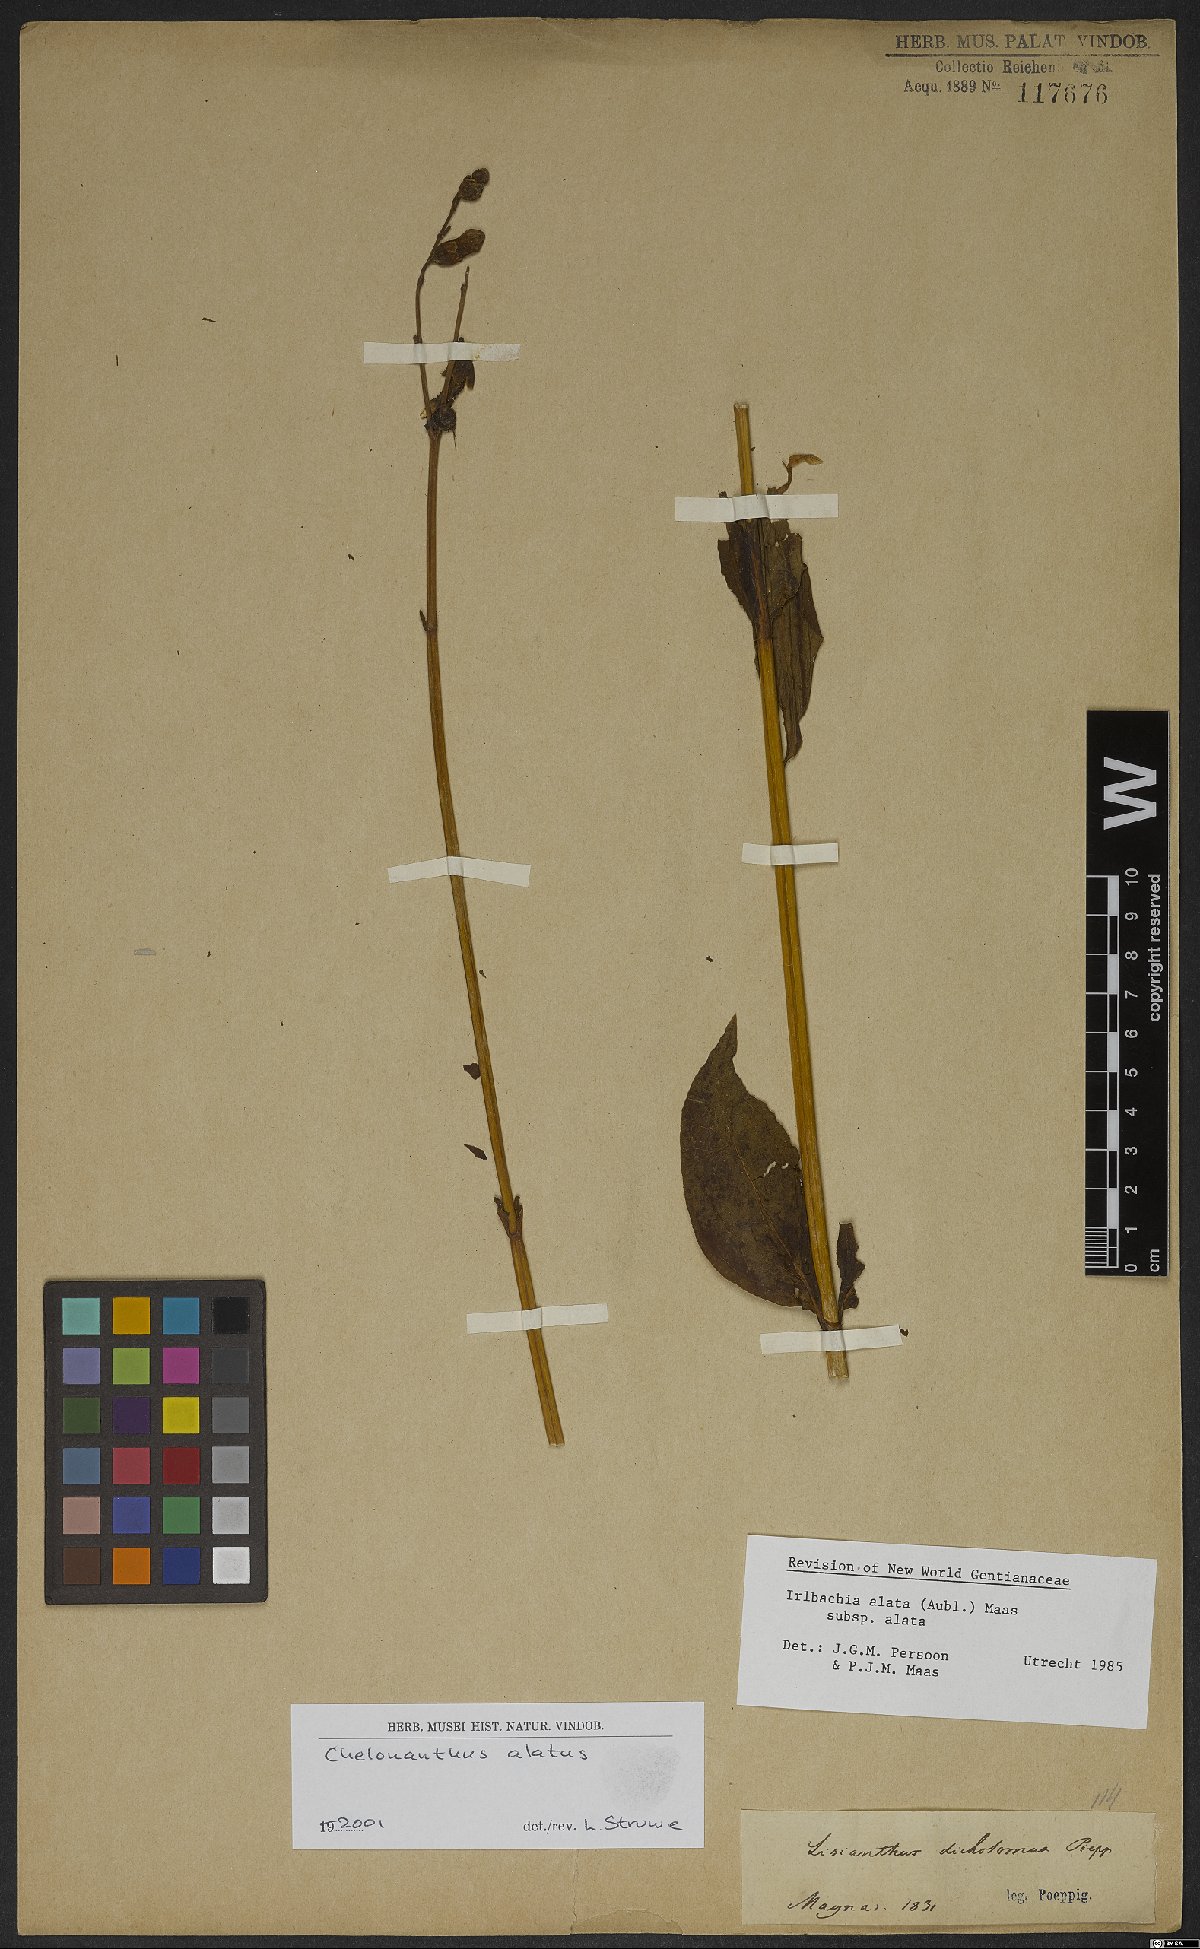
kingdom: Plantae
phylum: Tracheophyta
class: Magnoliopsida
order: Gentianales
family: Gentianaceae
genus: Chelonanthus
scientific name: Chelonanthus alatus
